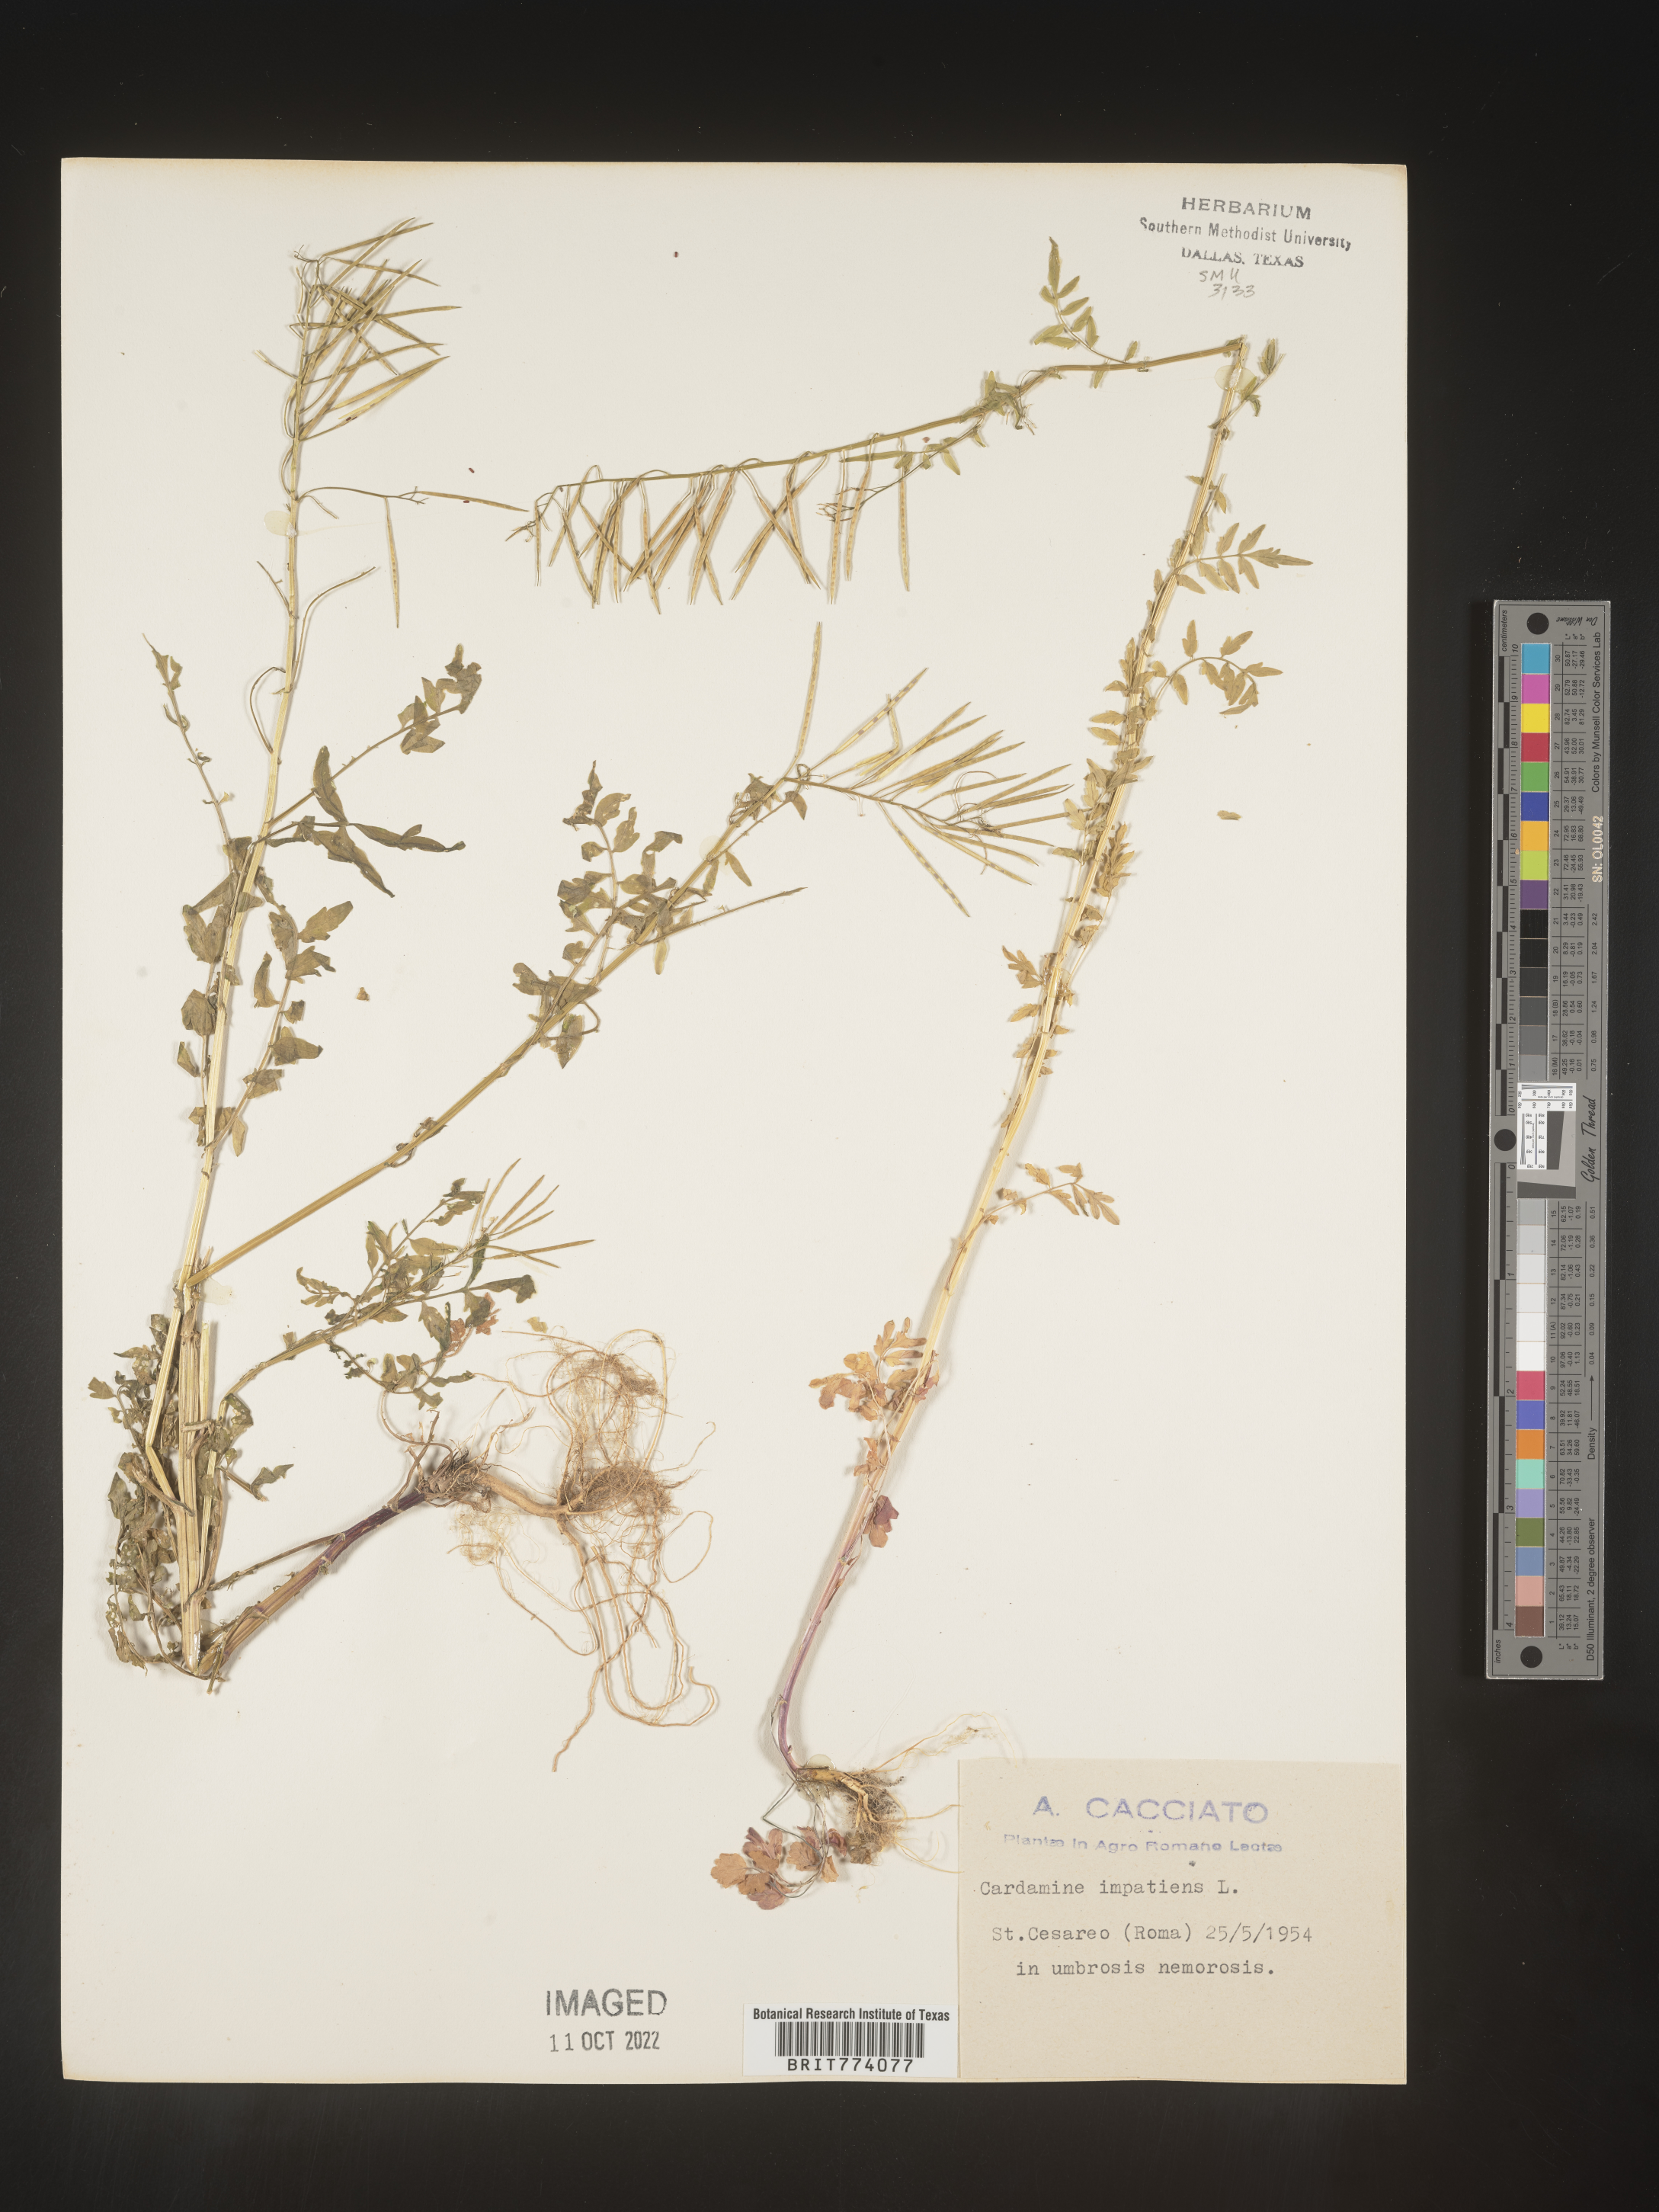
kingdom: Plantae
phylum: Tracheophyta
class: Magnoliopsida
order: Brassicales
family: Brassicaceae
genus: Cardamine
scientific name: Cardamine
